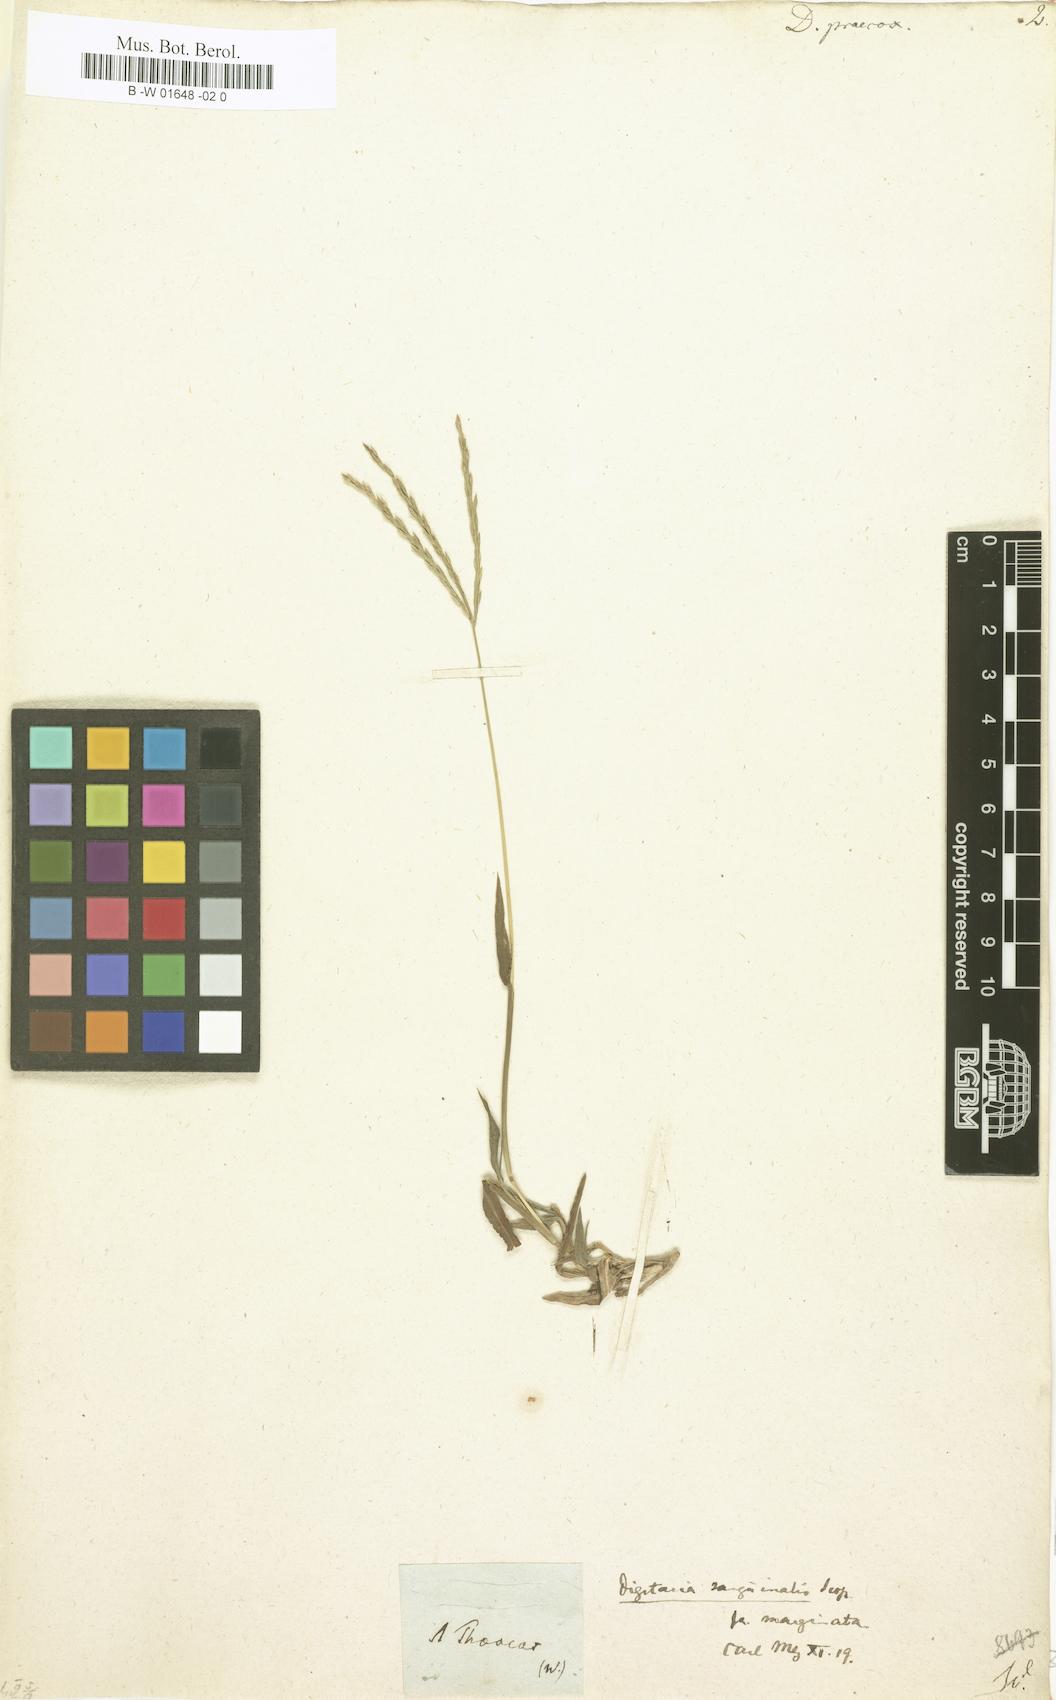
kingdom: Plantae
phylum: Tracheophyta
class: Liliopsida
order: Poales
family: Poaceae
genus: Digitaria
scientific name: Digitaria sanguinalis
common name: Hairy crabgrass
